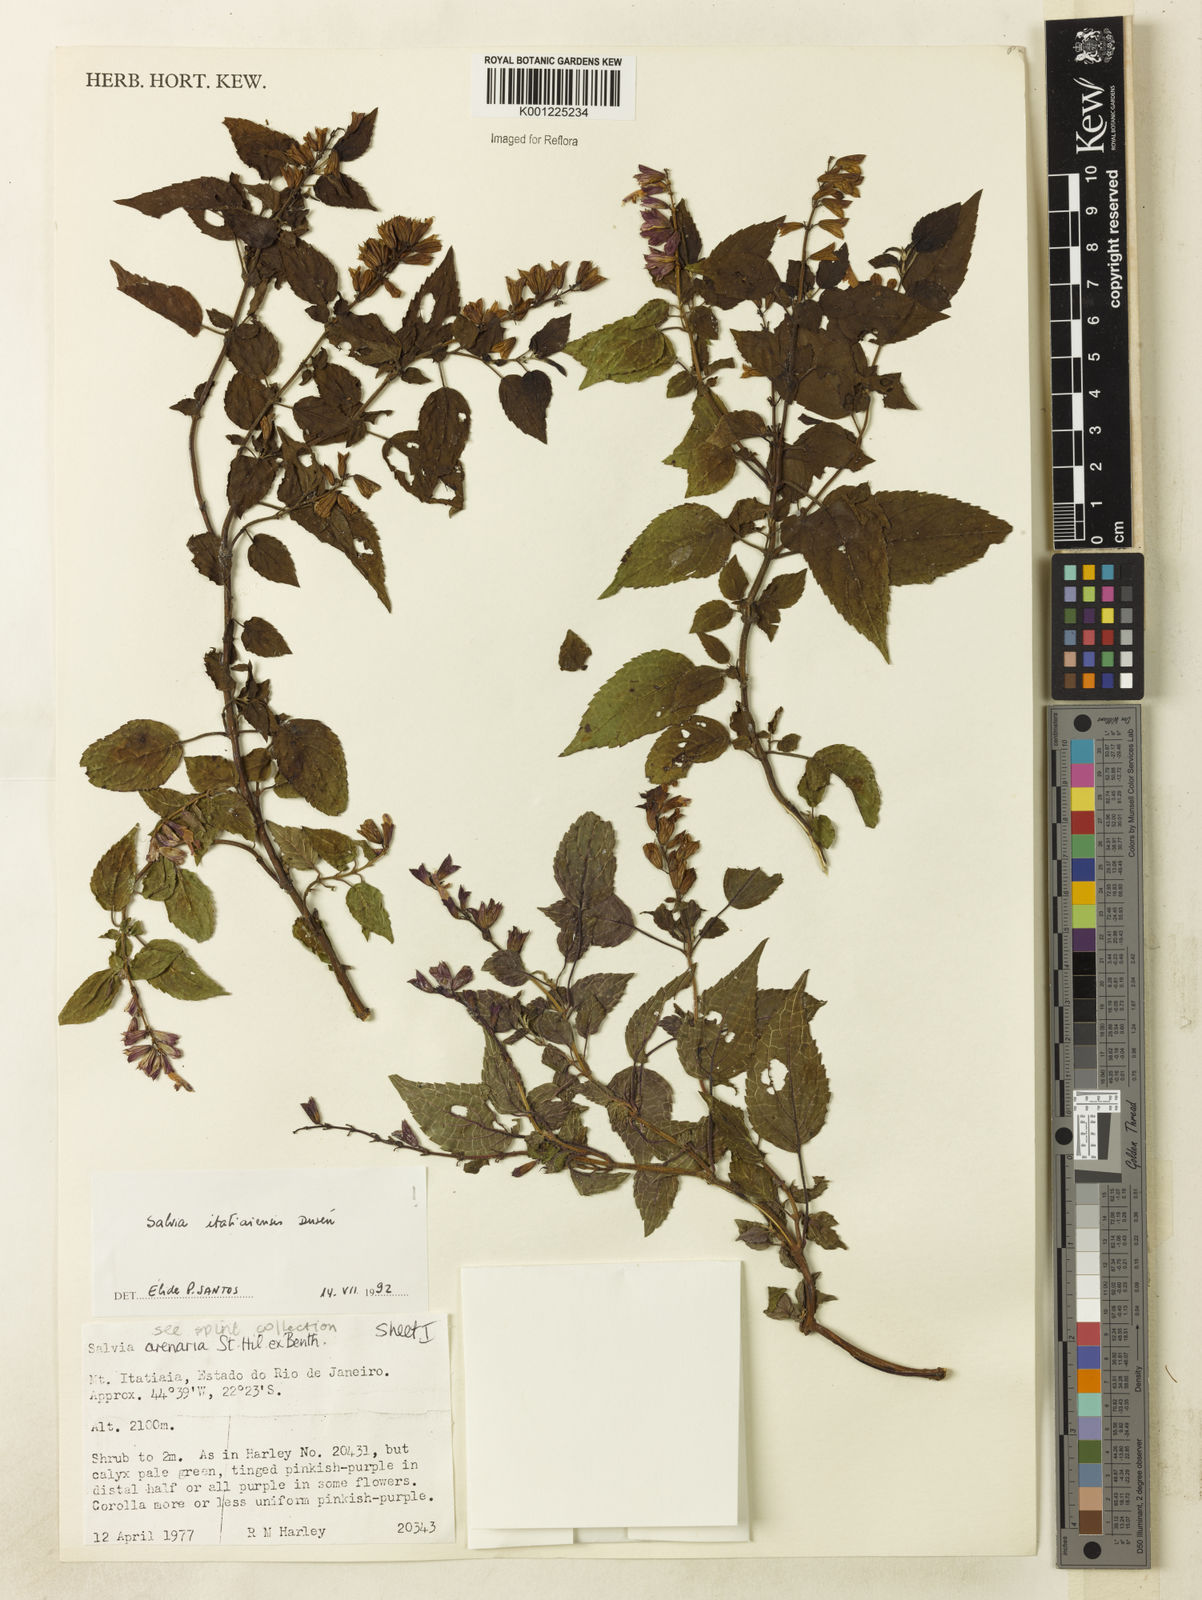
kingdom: Plantae
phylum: Tracheophyta
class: Magnoliopsida
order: Lamiales
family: Lamiaceae
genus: Salvia
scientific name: Salvia
